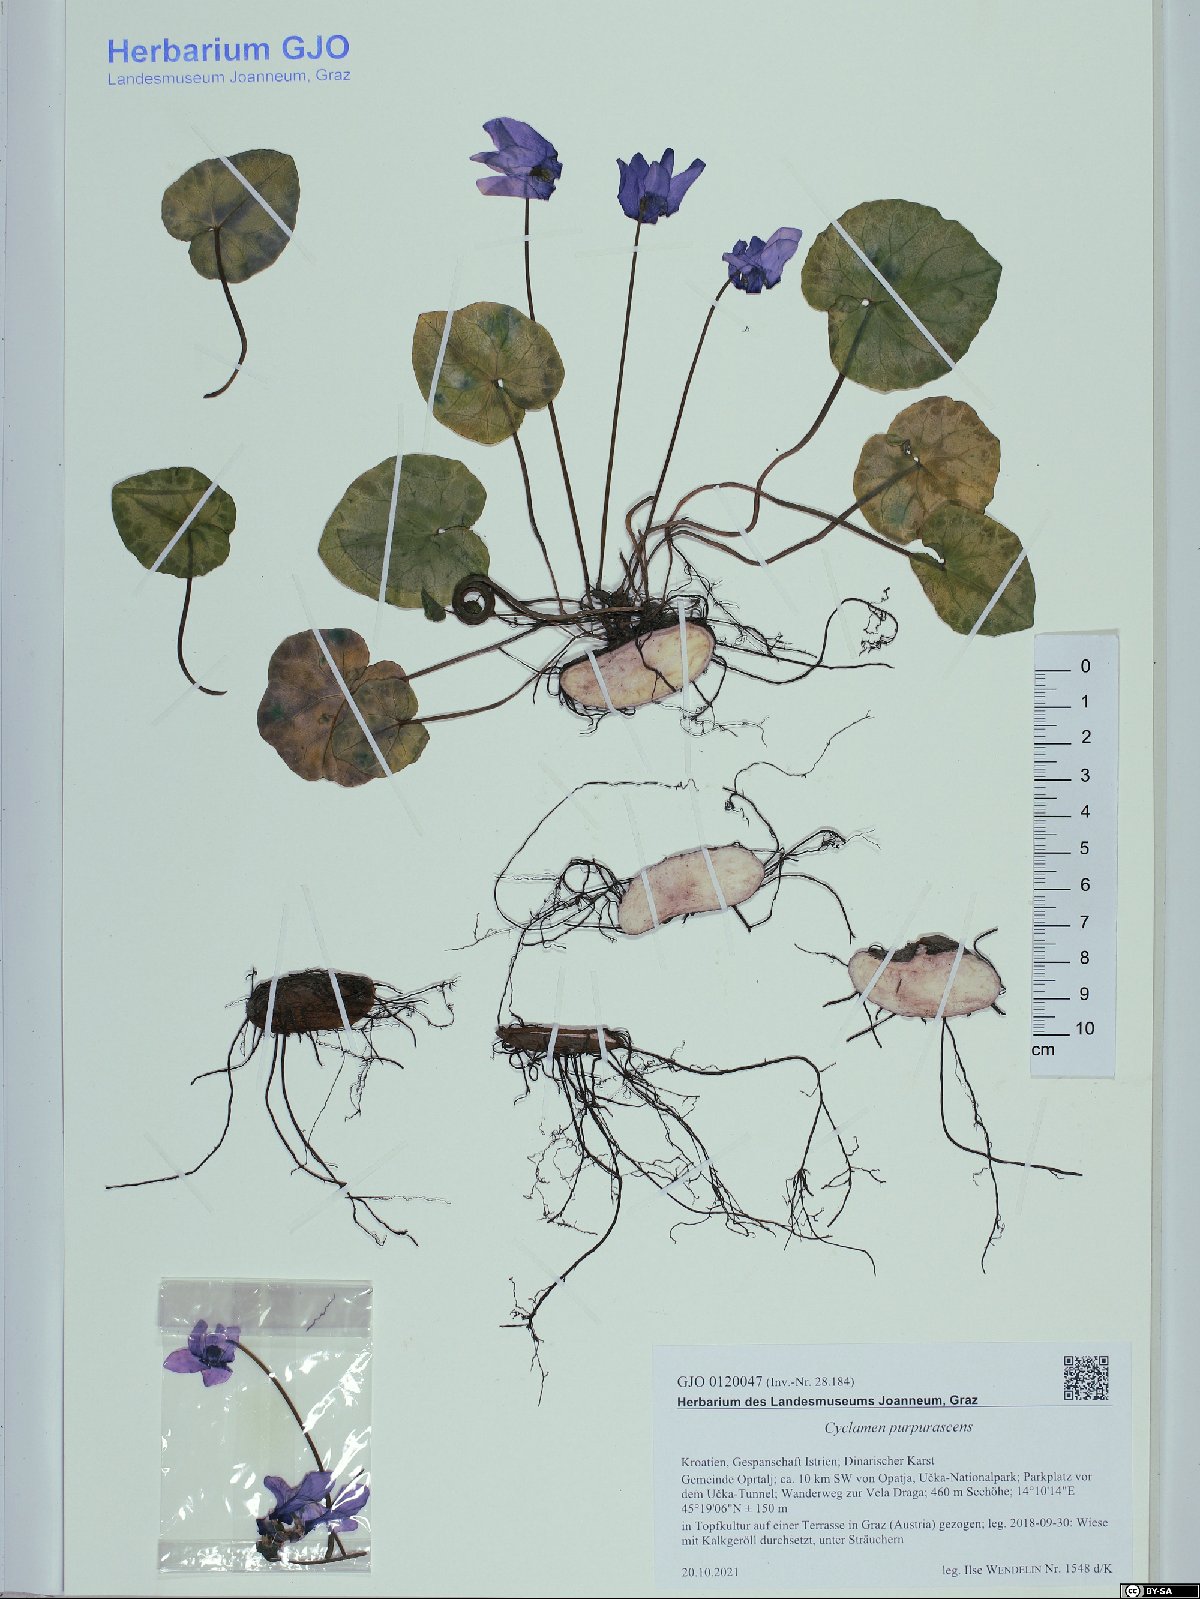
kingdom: Plantae
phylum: Tracheophyta
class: Magnoliopsida
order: Ericales
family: Primulaceae
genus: Cyclamen
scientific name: Cyclamen purpurascens
